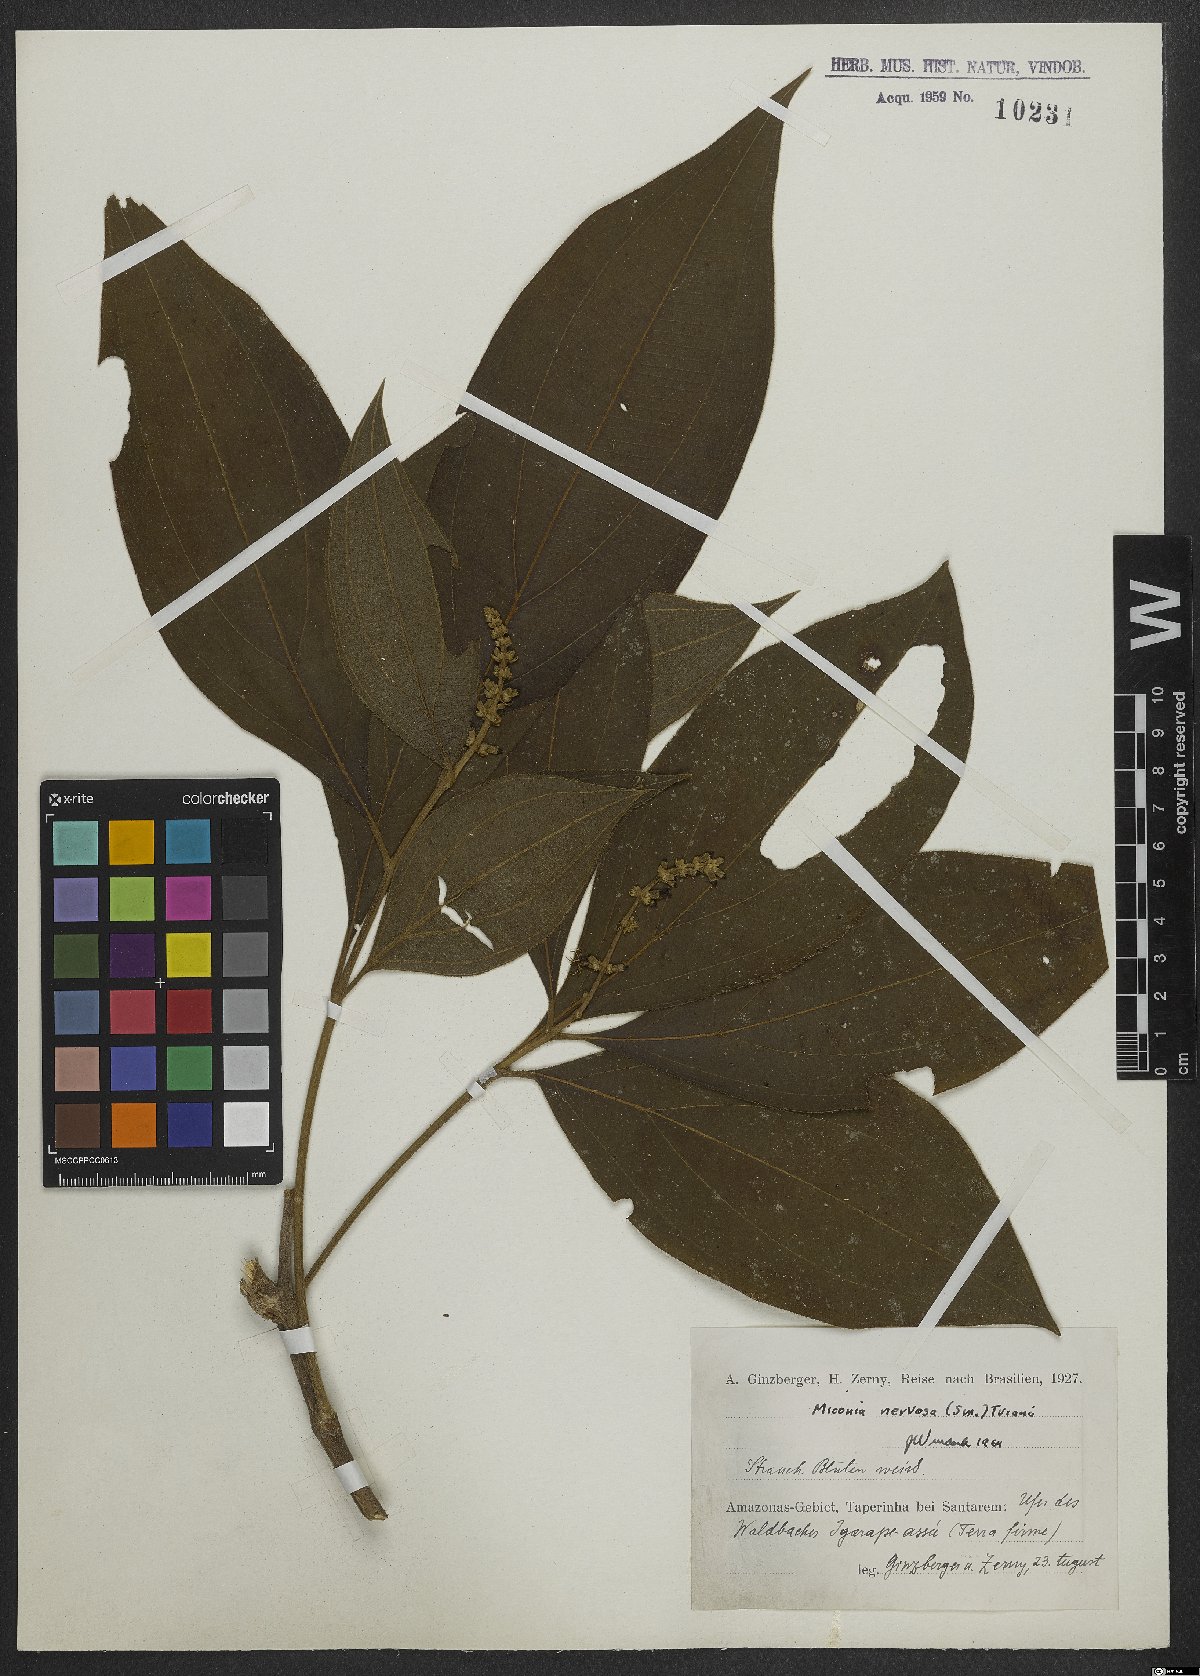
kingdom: Plantae
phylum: Tracheophyta
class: Magnoliopsida
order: Myrtales
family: Melastomataceae
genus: Miconia
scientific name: Miconia nervosa
